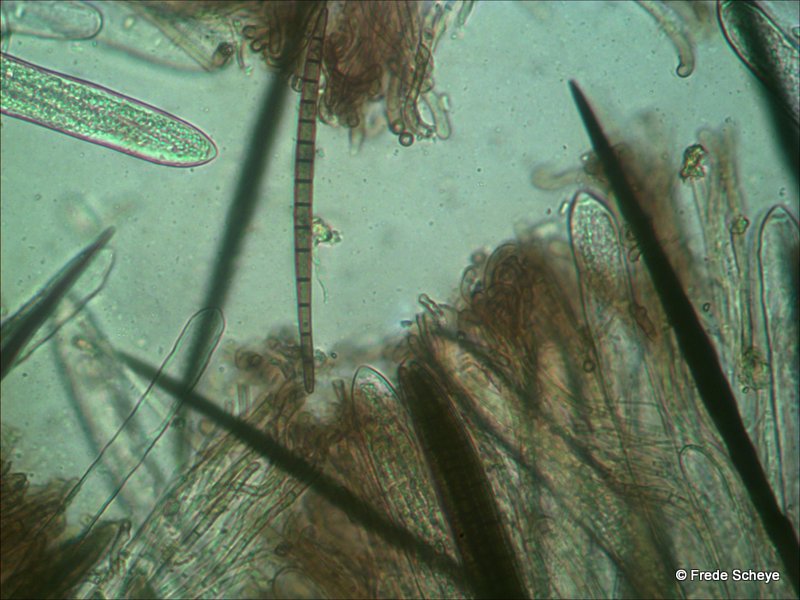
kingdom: Fungi
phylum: Ascomycota
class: Geoglossomycetes
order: Geoglossales
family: Geoglossaceae
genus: Trichoglossum
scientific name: Trichoglossum hirsutum
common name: håret jordtunge
